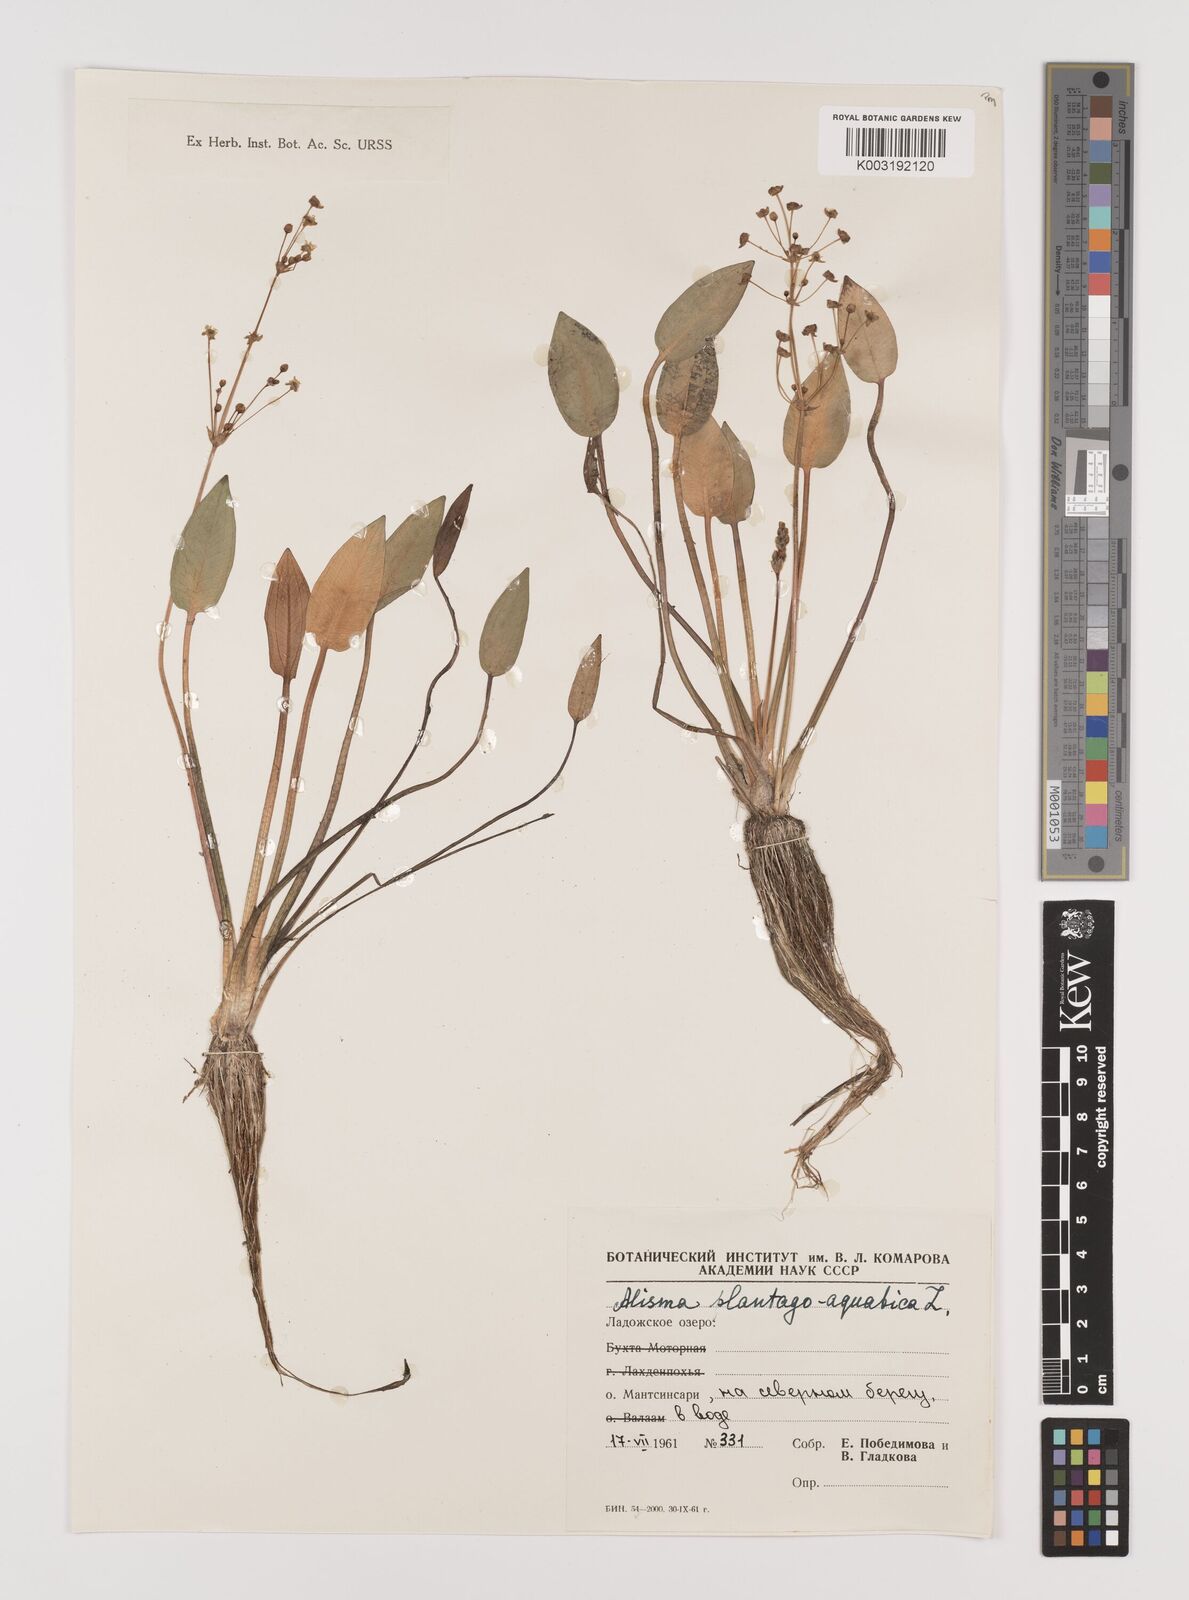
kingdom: Plantae
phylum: Tracheophyta
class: Liliopsida
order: Alismatales
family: Alismataceae
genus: Alisma
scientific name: Alisma plantago-aquatica
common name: Water-plantain
